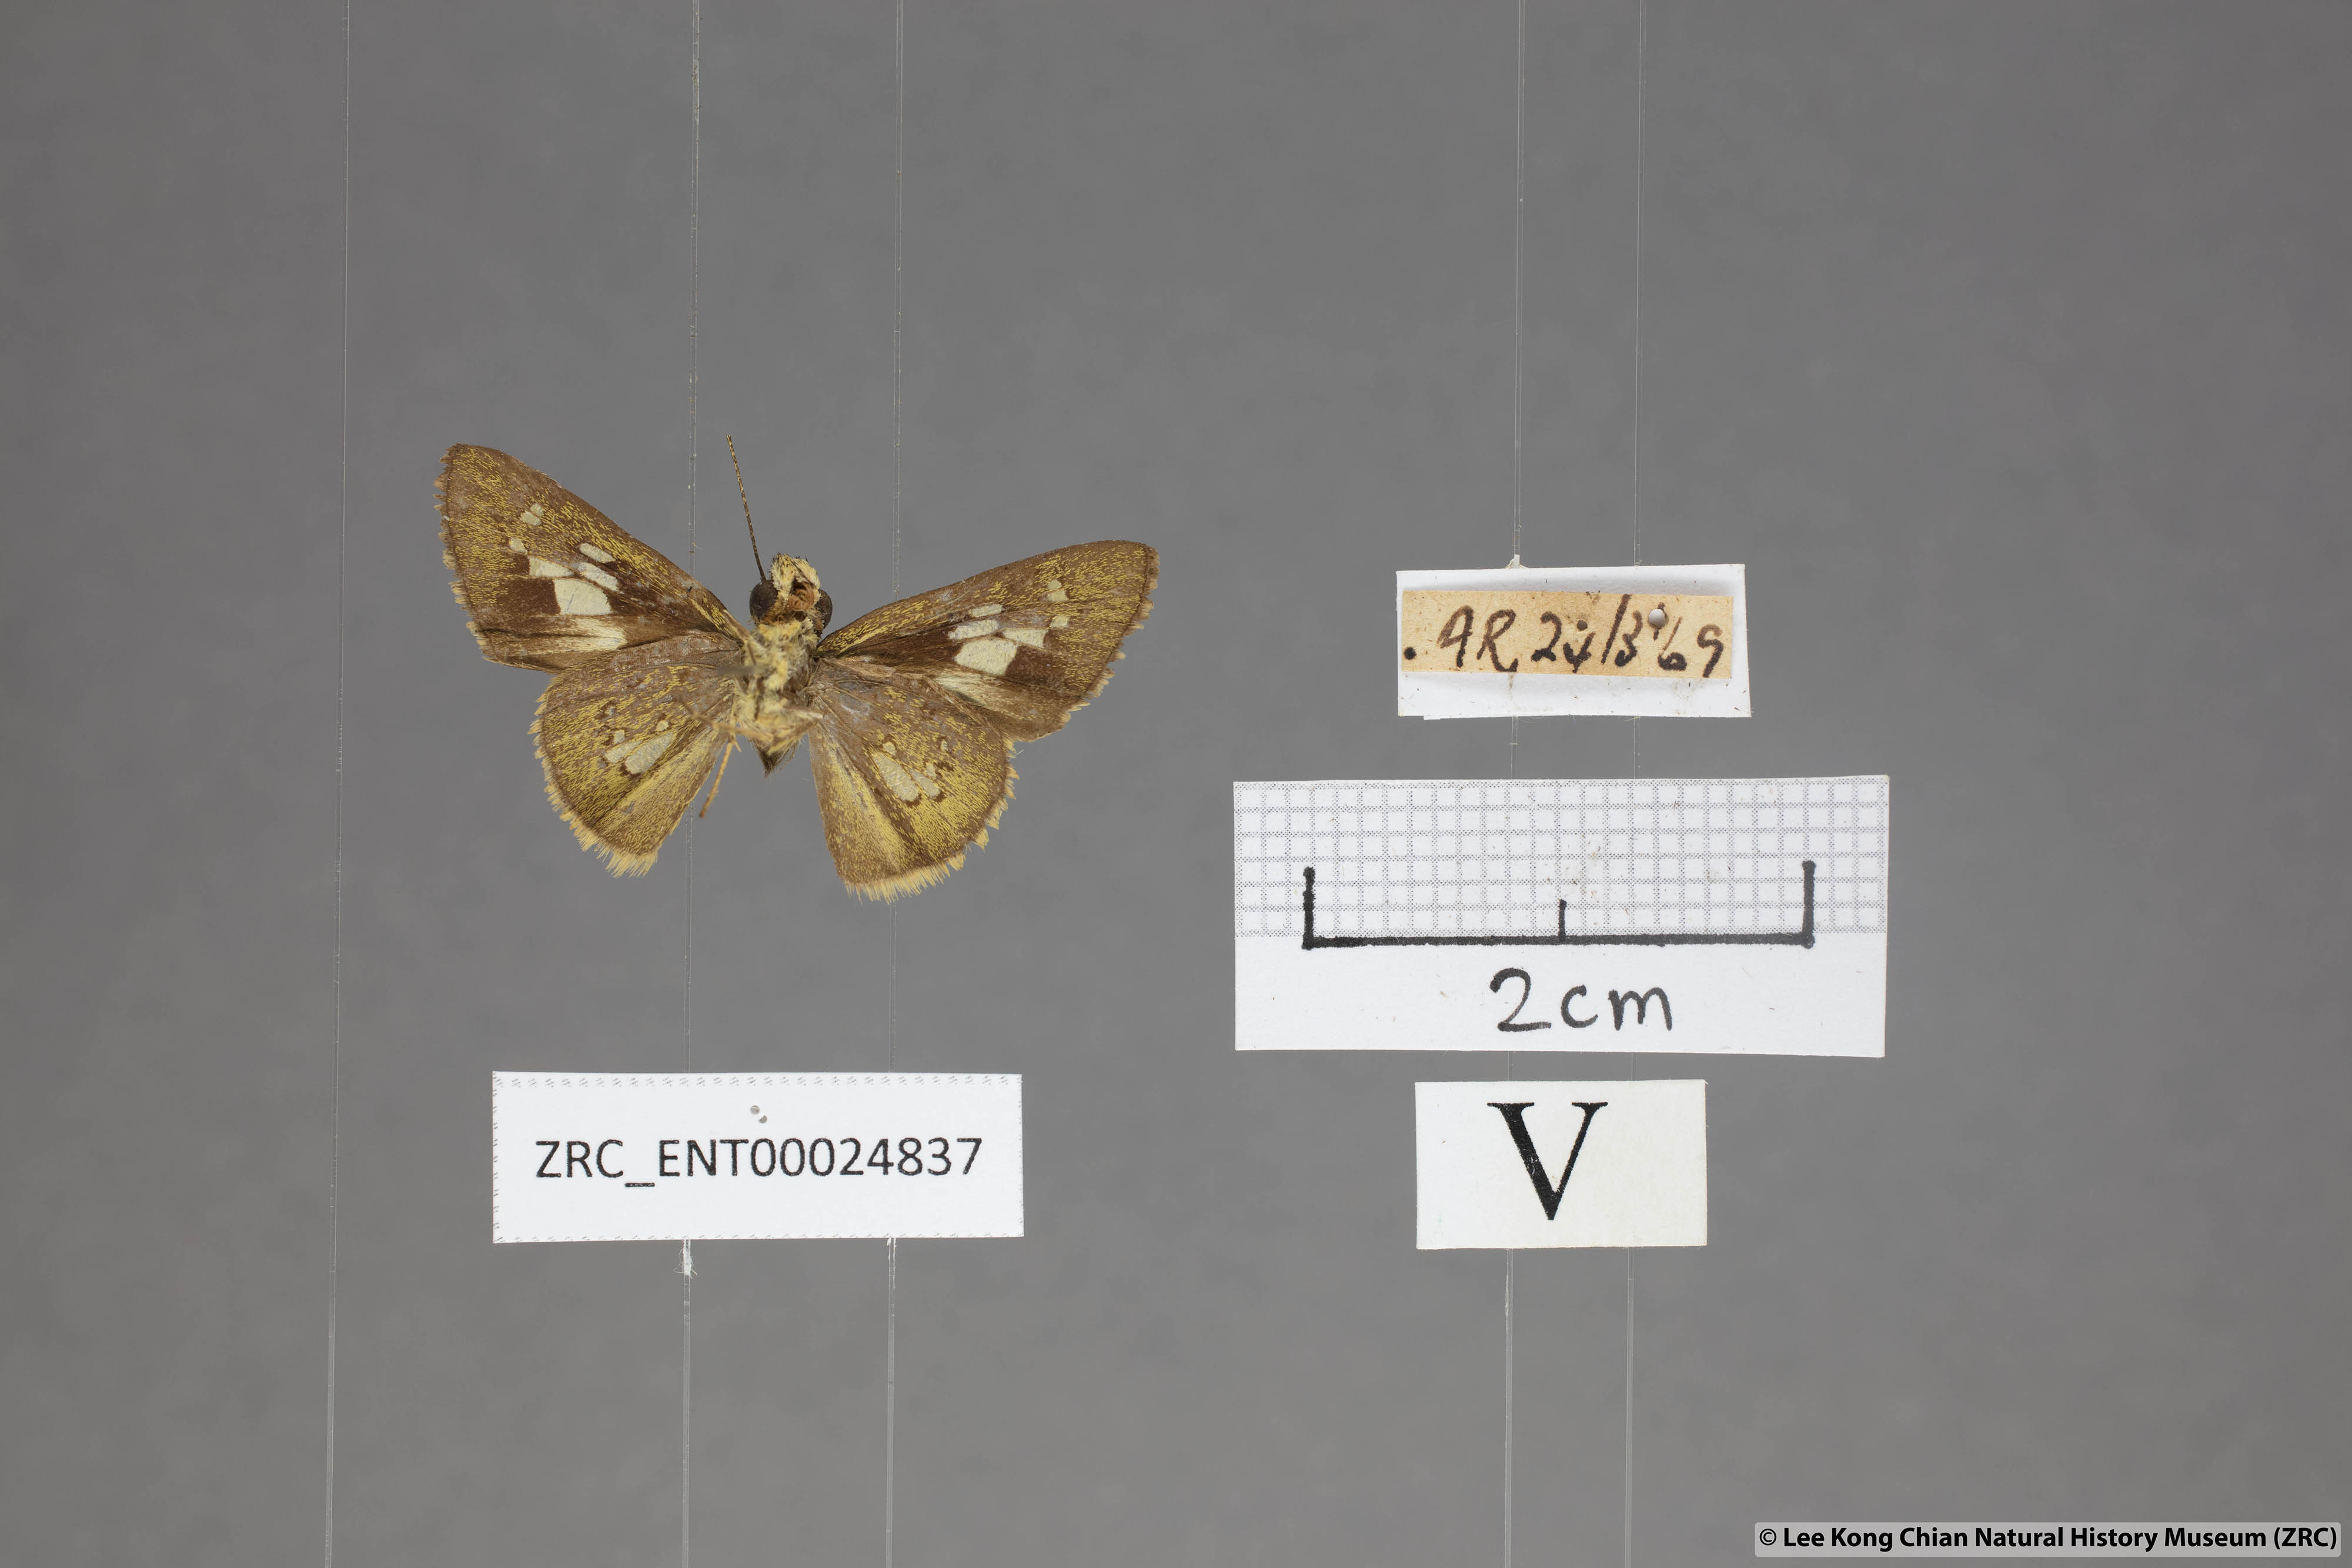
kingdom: Animalia
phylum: Arthropoda
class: Insecta
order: Lepidoptera
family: Hesperiidae
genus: Isma
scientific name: Isma bononia
